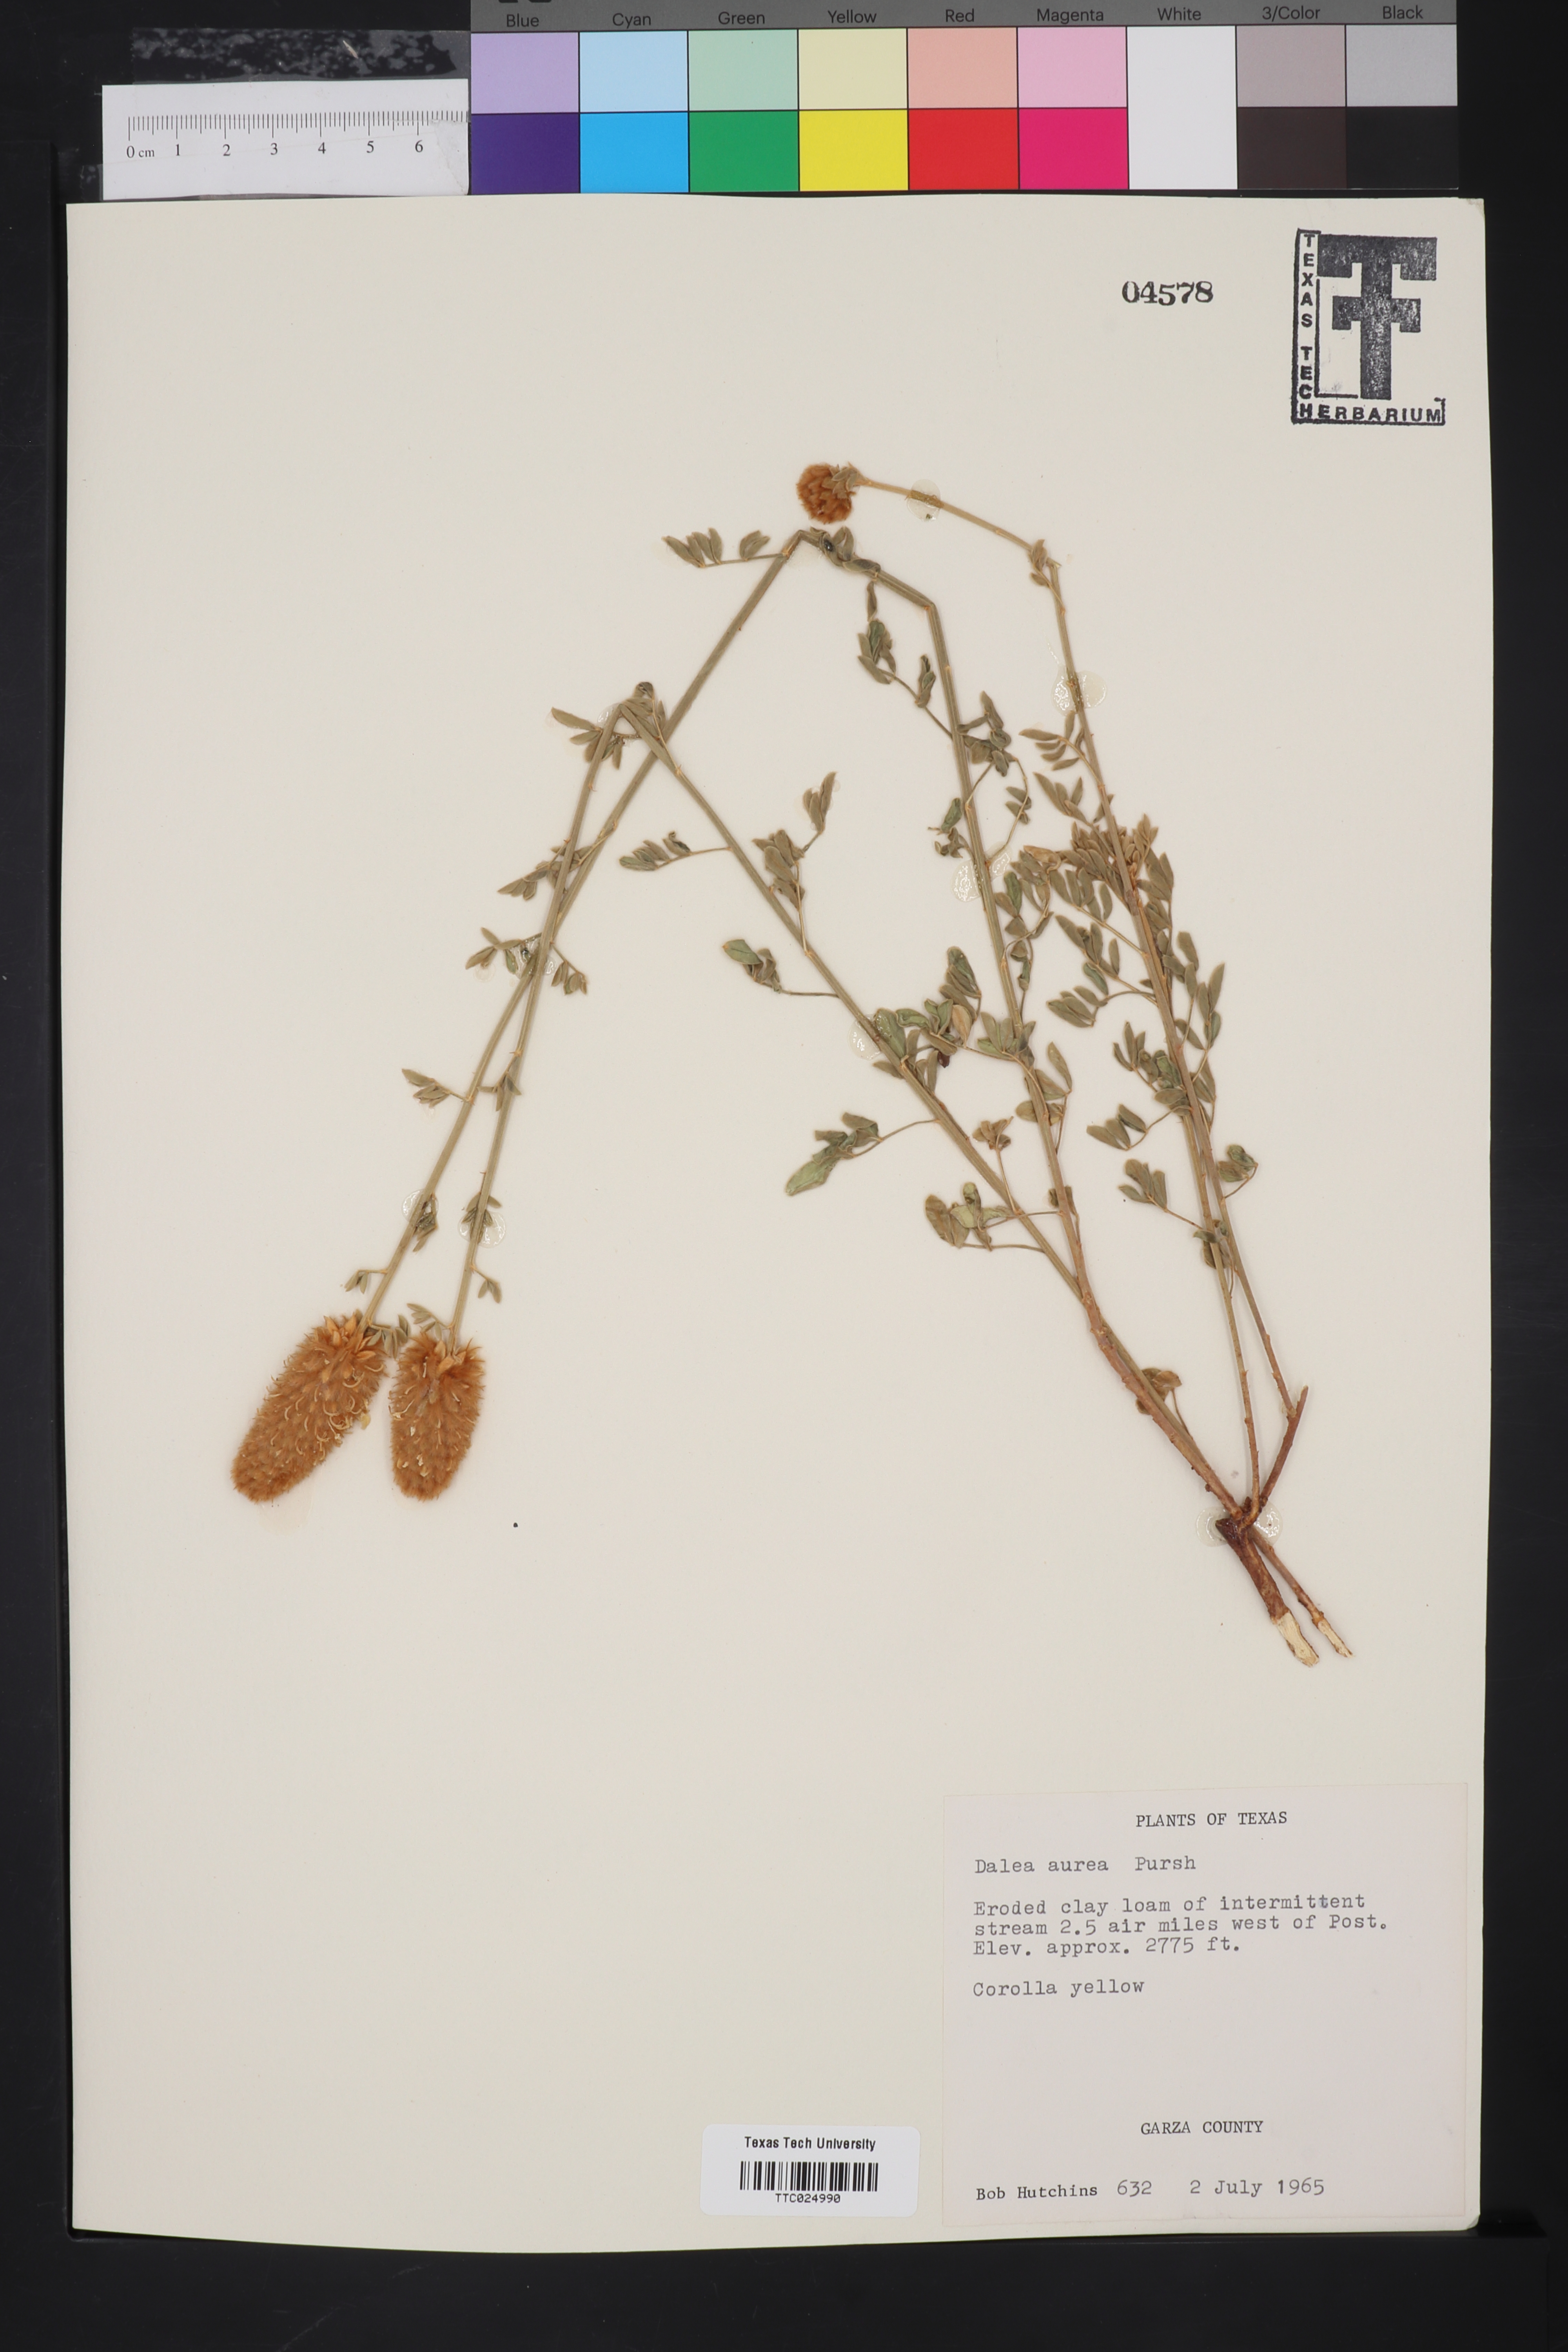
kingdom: Plantae
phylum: Tracheophyta
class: Magnoliopsida
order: Fabales
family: Fabaceae
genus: Dalea
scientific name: Dalea aurea
